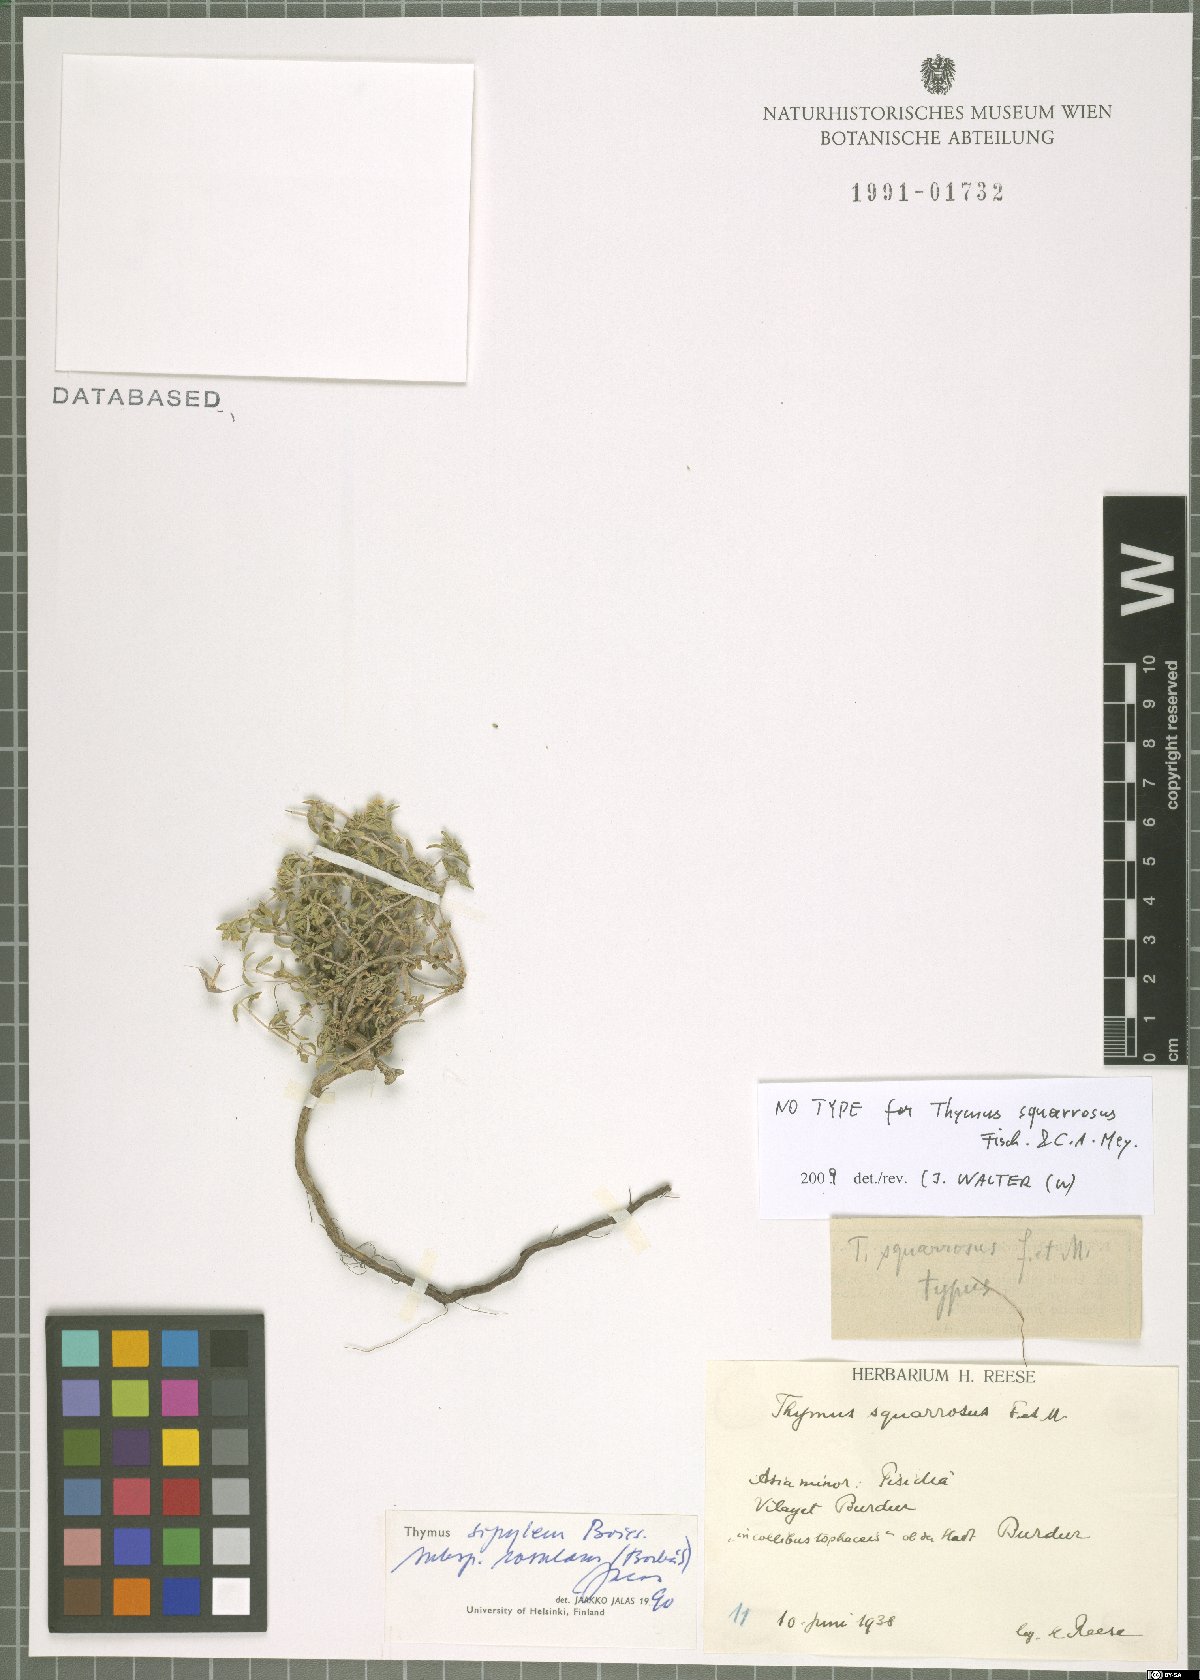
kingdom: Plantae
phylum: Tracheophyta
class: Magnoliopsida
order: Lamiales
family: Lamiaceae
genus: Thymus
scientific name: Thymus sipyleus
